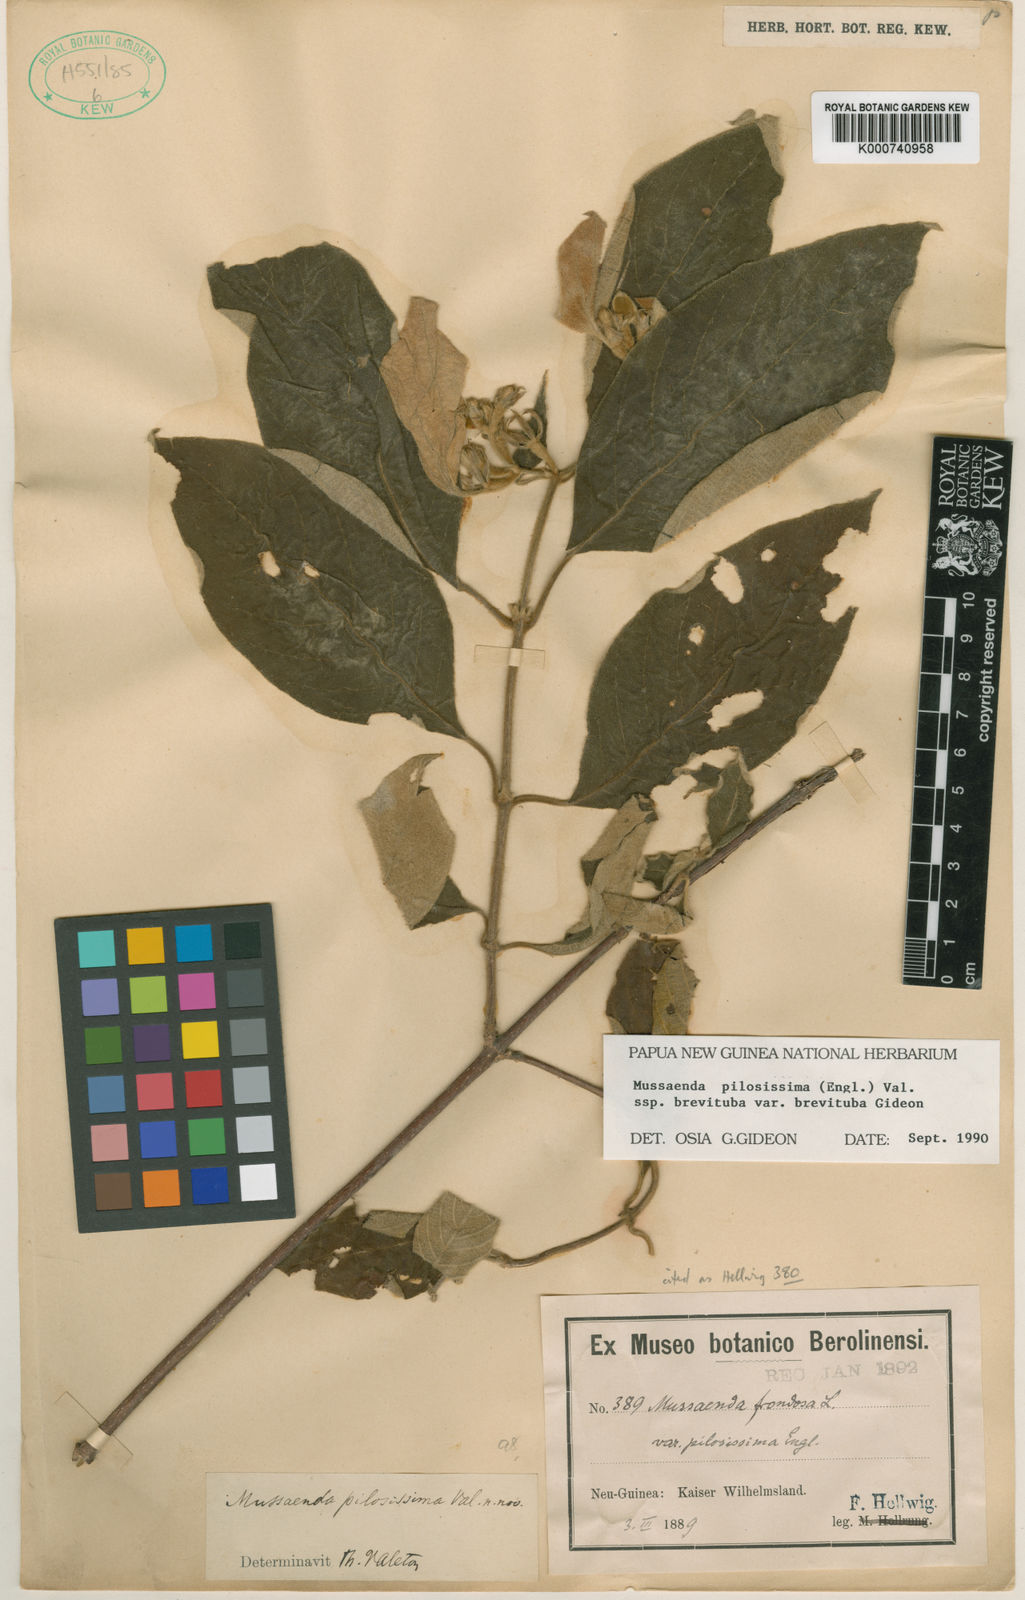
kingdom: Plantae
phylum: Tracheophyta
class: Magnoliopsida
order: Gentianales
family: Rubiaceae
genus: Mussaenda
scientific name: Mussaenda pilosissima
